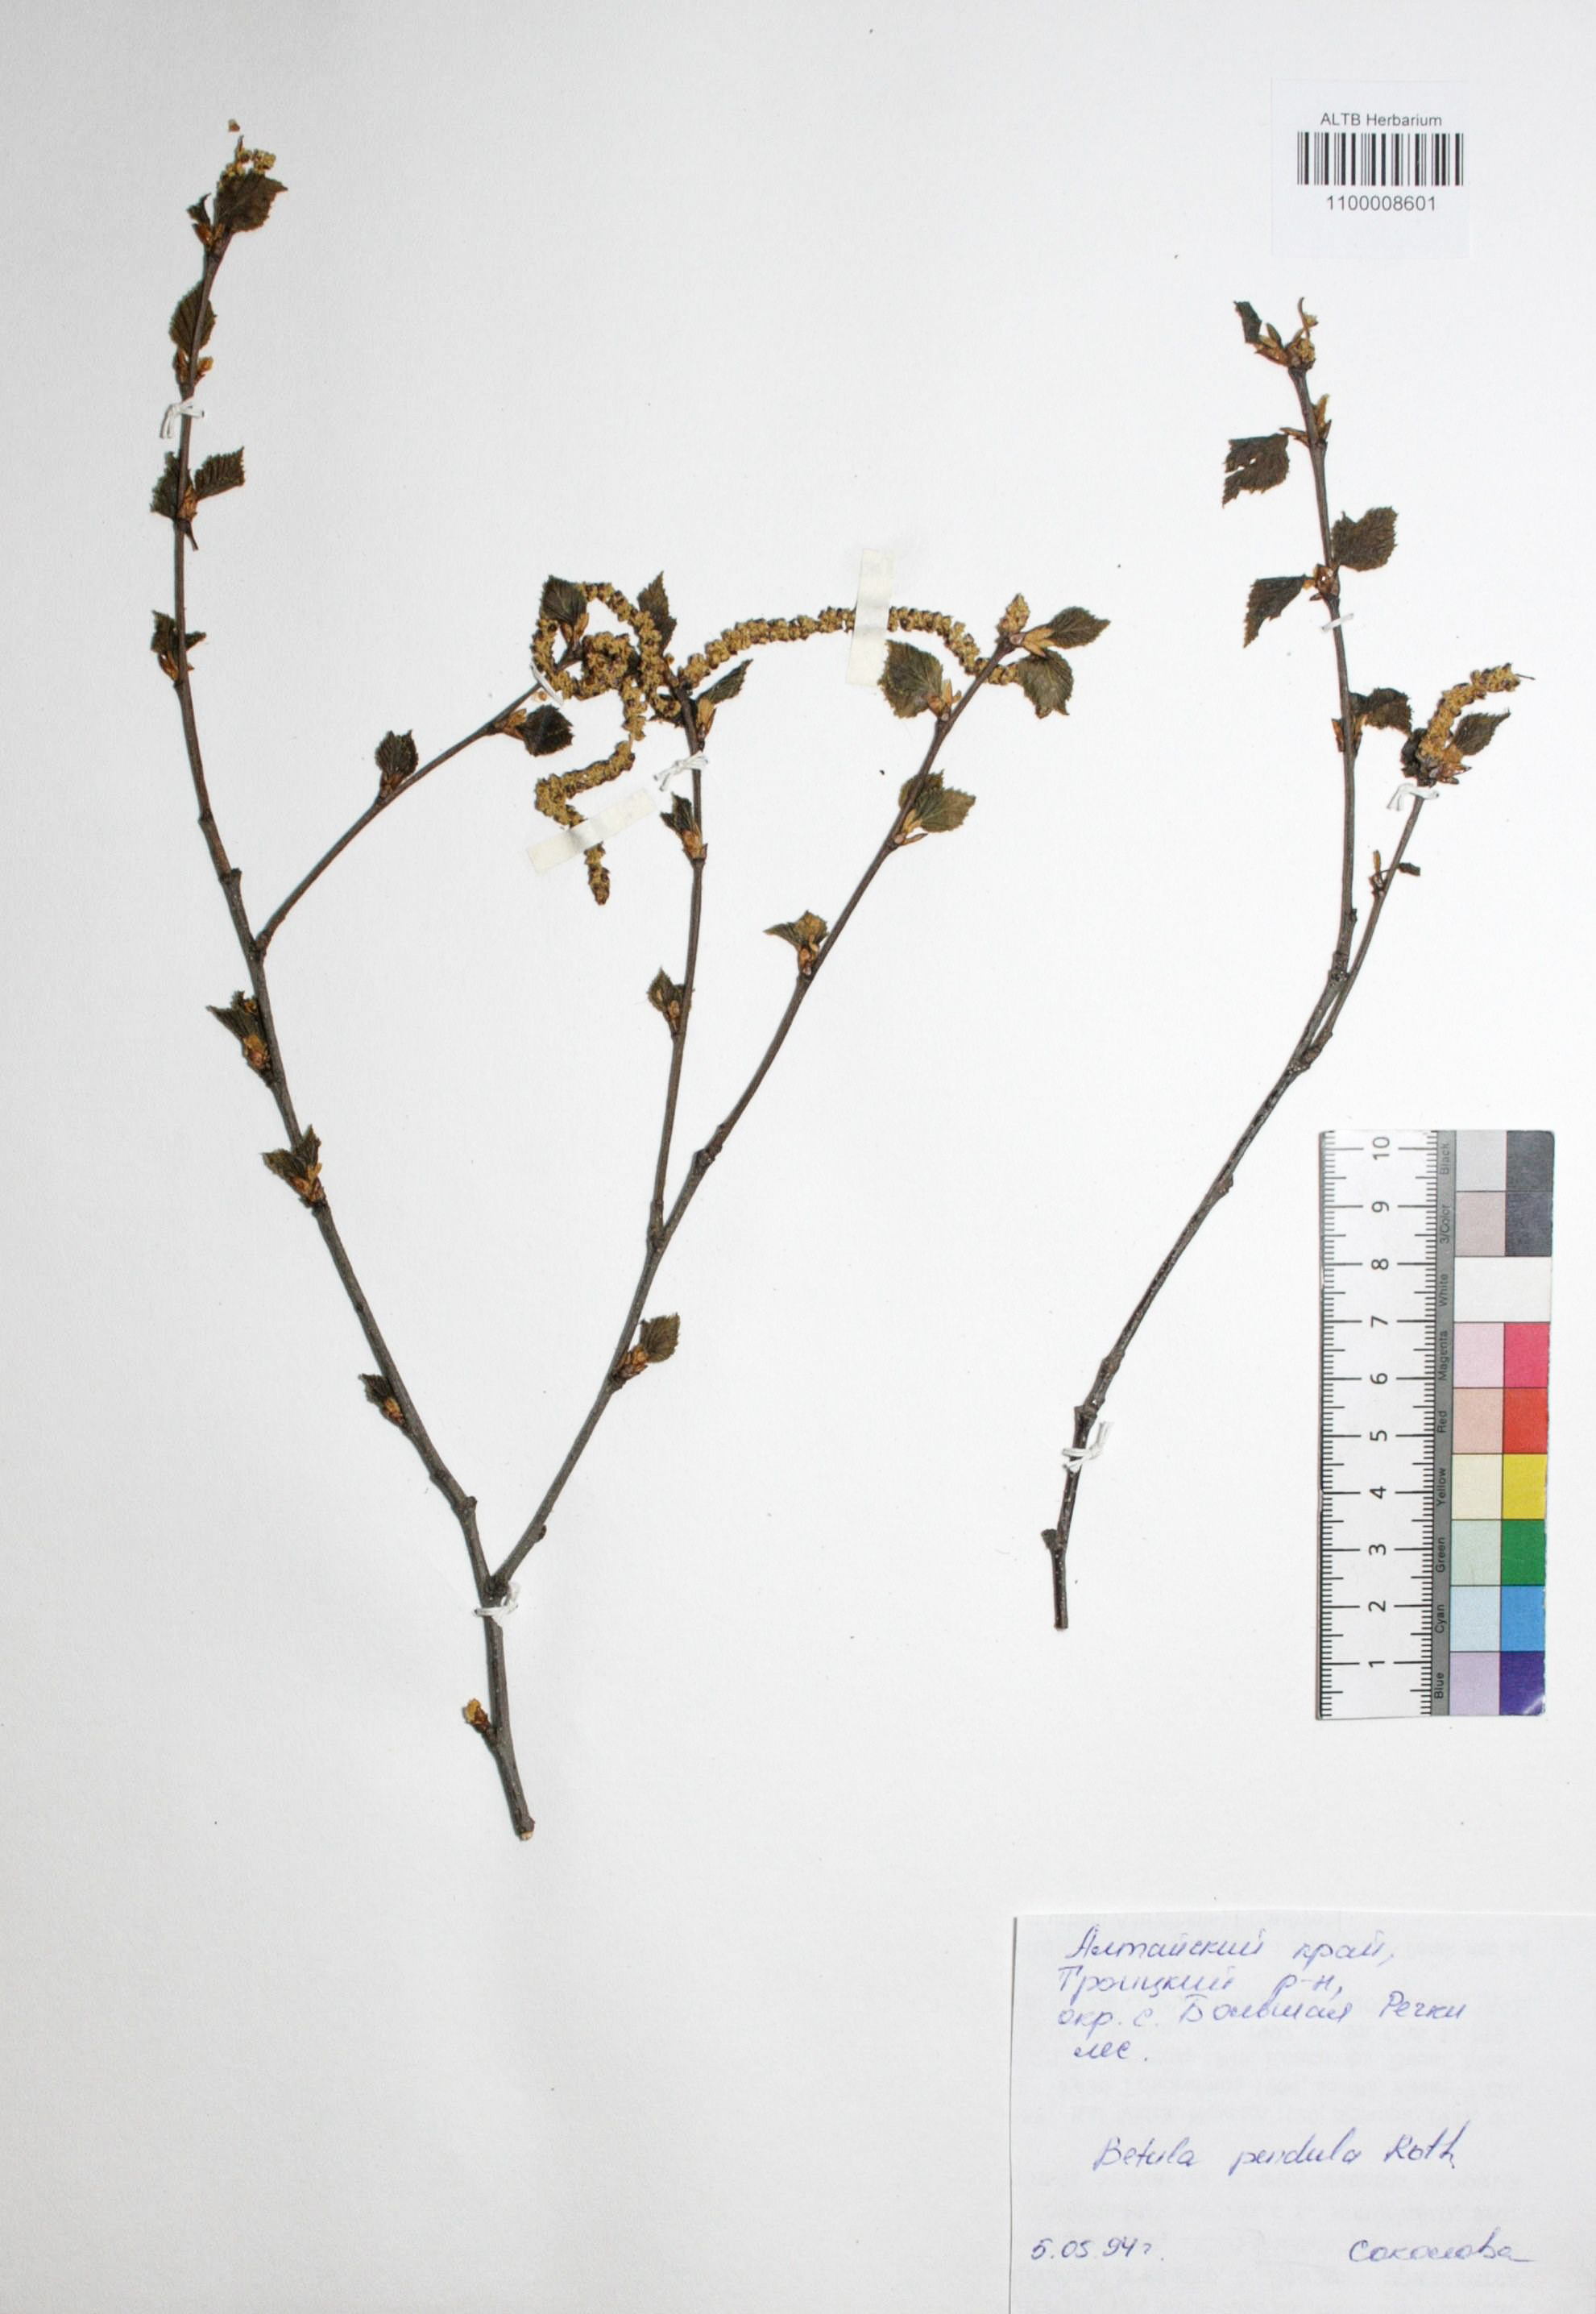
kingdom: Plantae
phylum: Tracheophyta
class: Magnoliopsida
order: Fagales
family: Betulaceae
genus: Betula
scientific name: Betula pendula
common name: Silver birch
